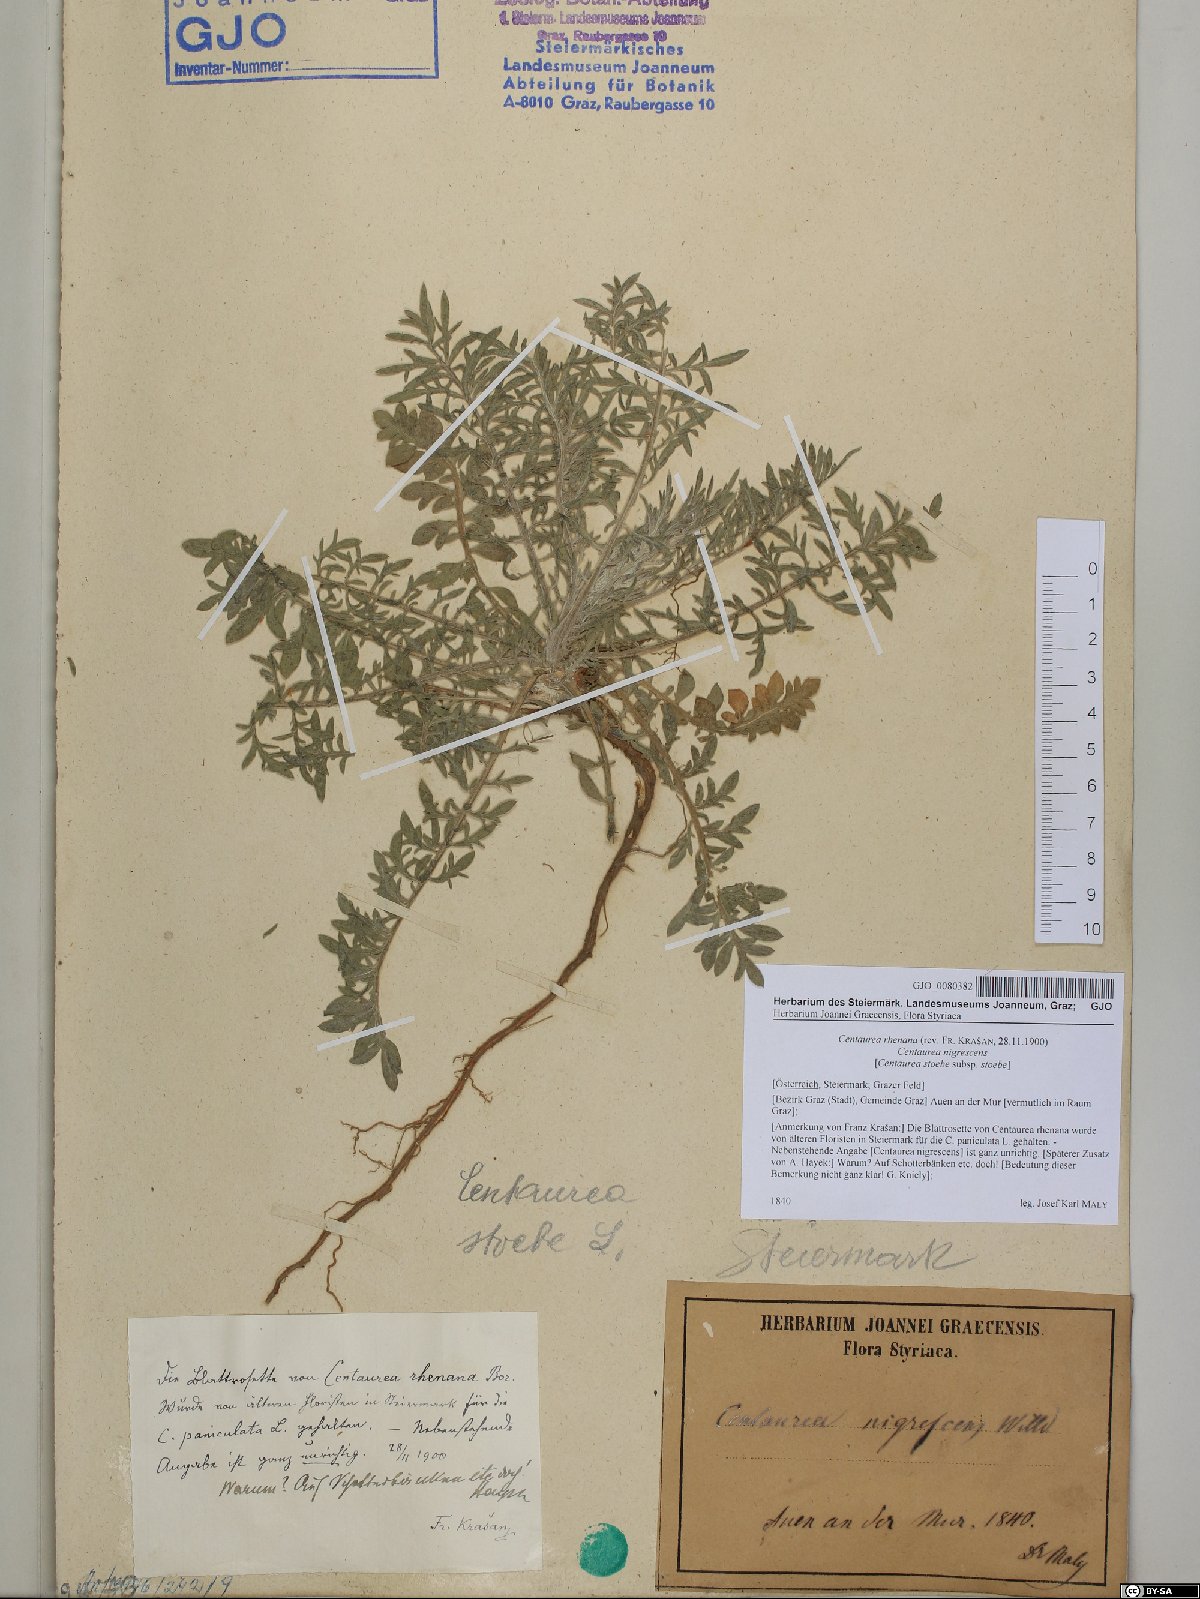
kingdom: Plantae
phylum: Tracheophyta
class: Magnoliopsida
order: Asterales
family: Asteraceae
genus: Centaurea
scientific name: Centaurea stoebe
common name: Spotted knapweed
